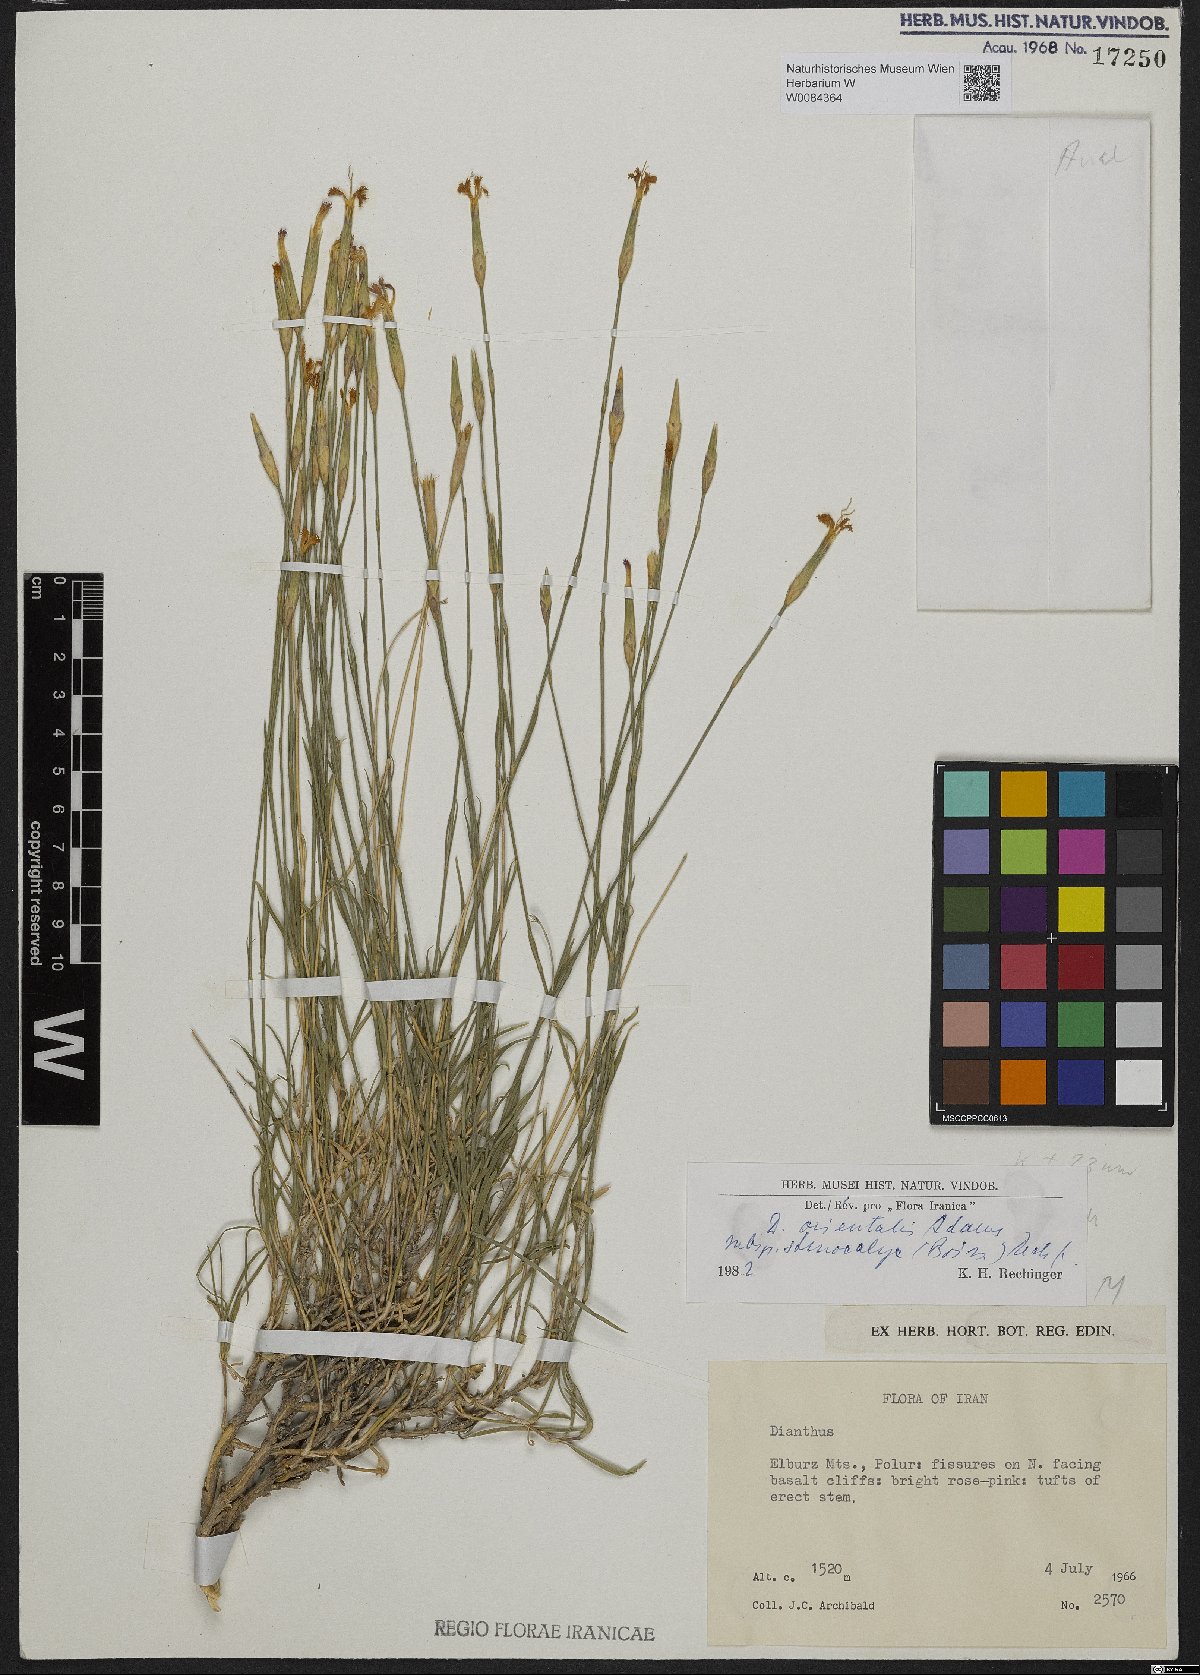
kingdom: Plantae
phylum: Tracheophyta
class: Magnoliopsida
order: Caryophyllales
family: Caryophyllaceae
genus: Dianthus
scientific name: Dianthus orientalis
